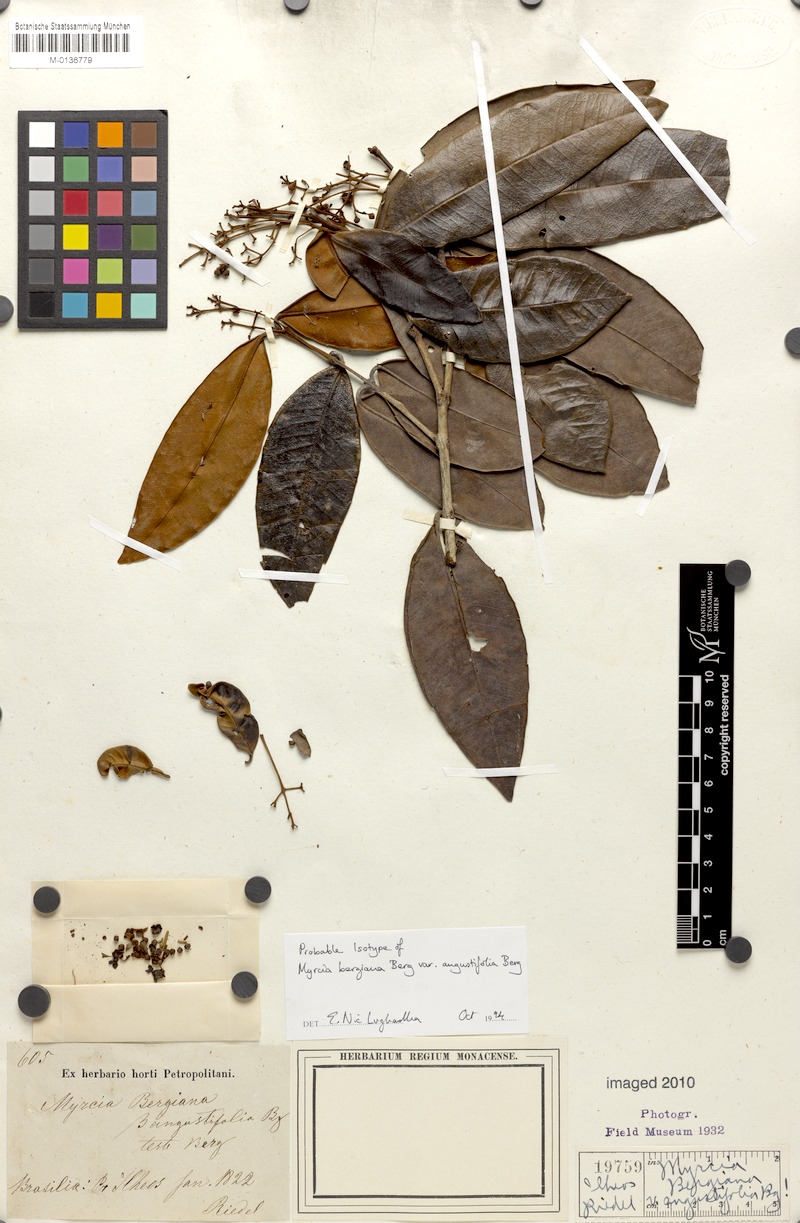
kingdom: Plantae
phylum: Tracheophyta
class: Magnoliopsida
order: Myrtales
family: Myrtaceae
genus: Myrcia
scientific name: Myrcia bergiana
